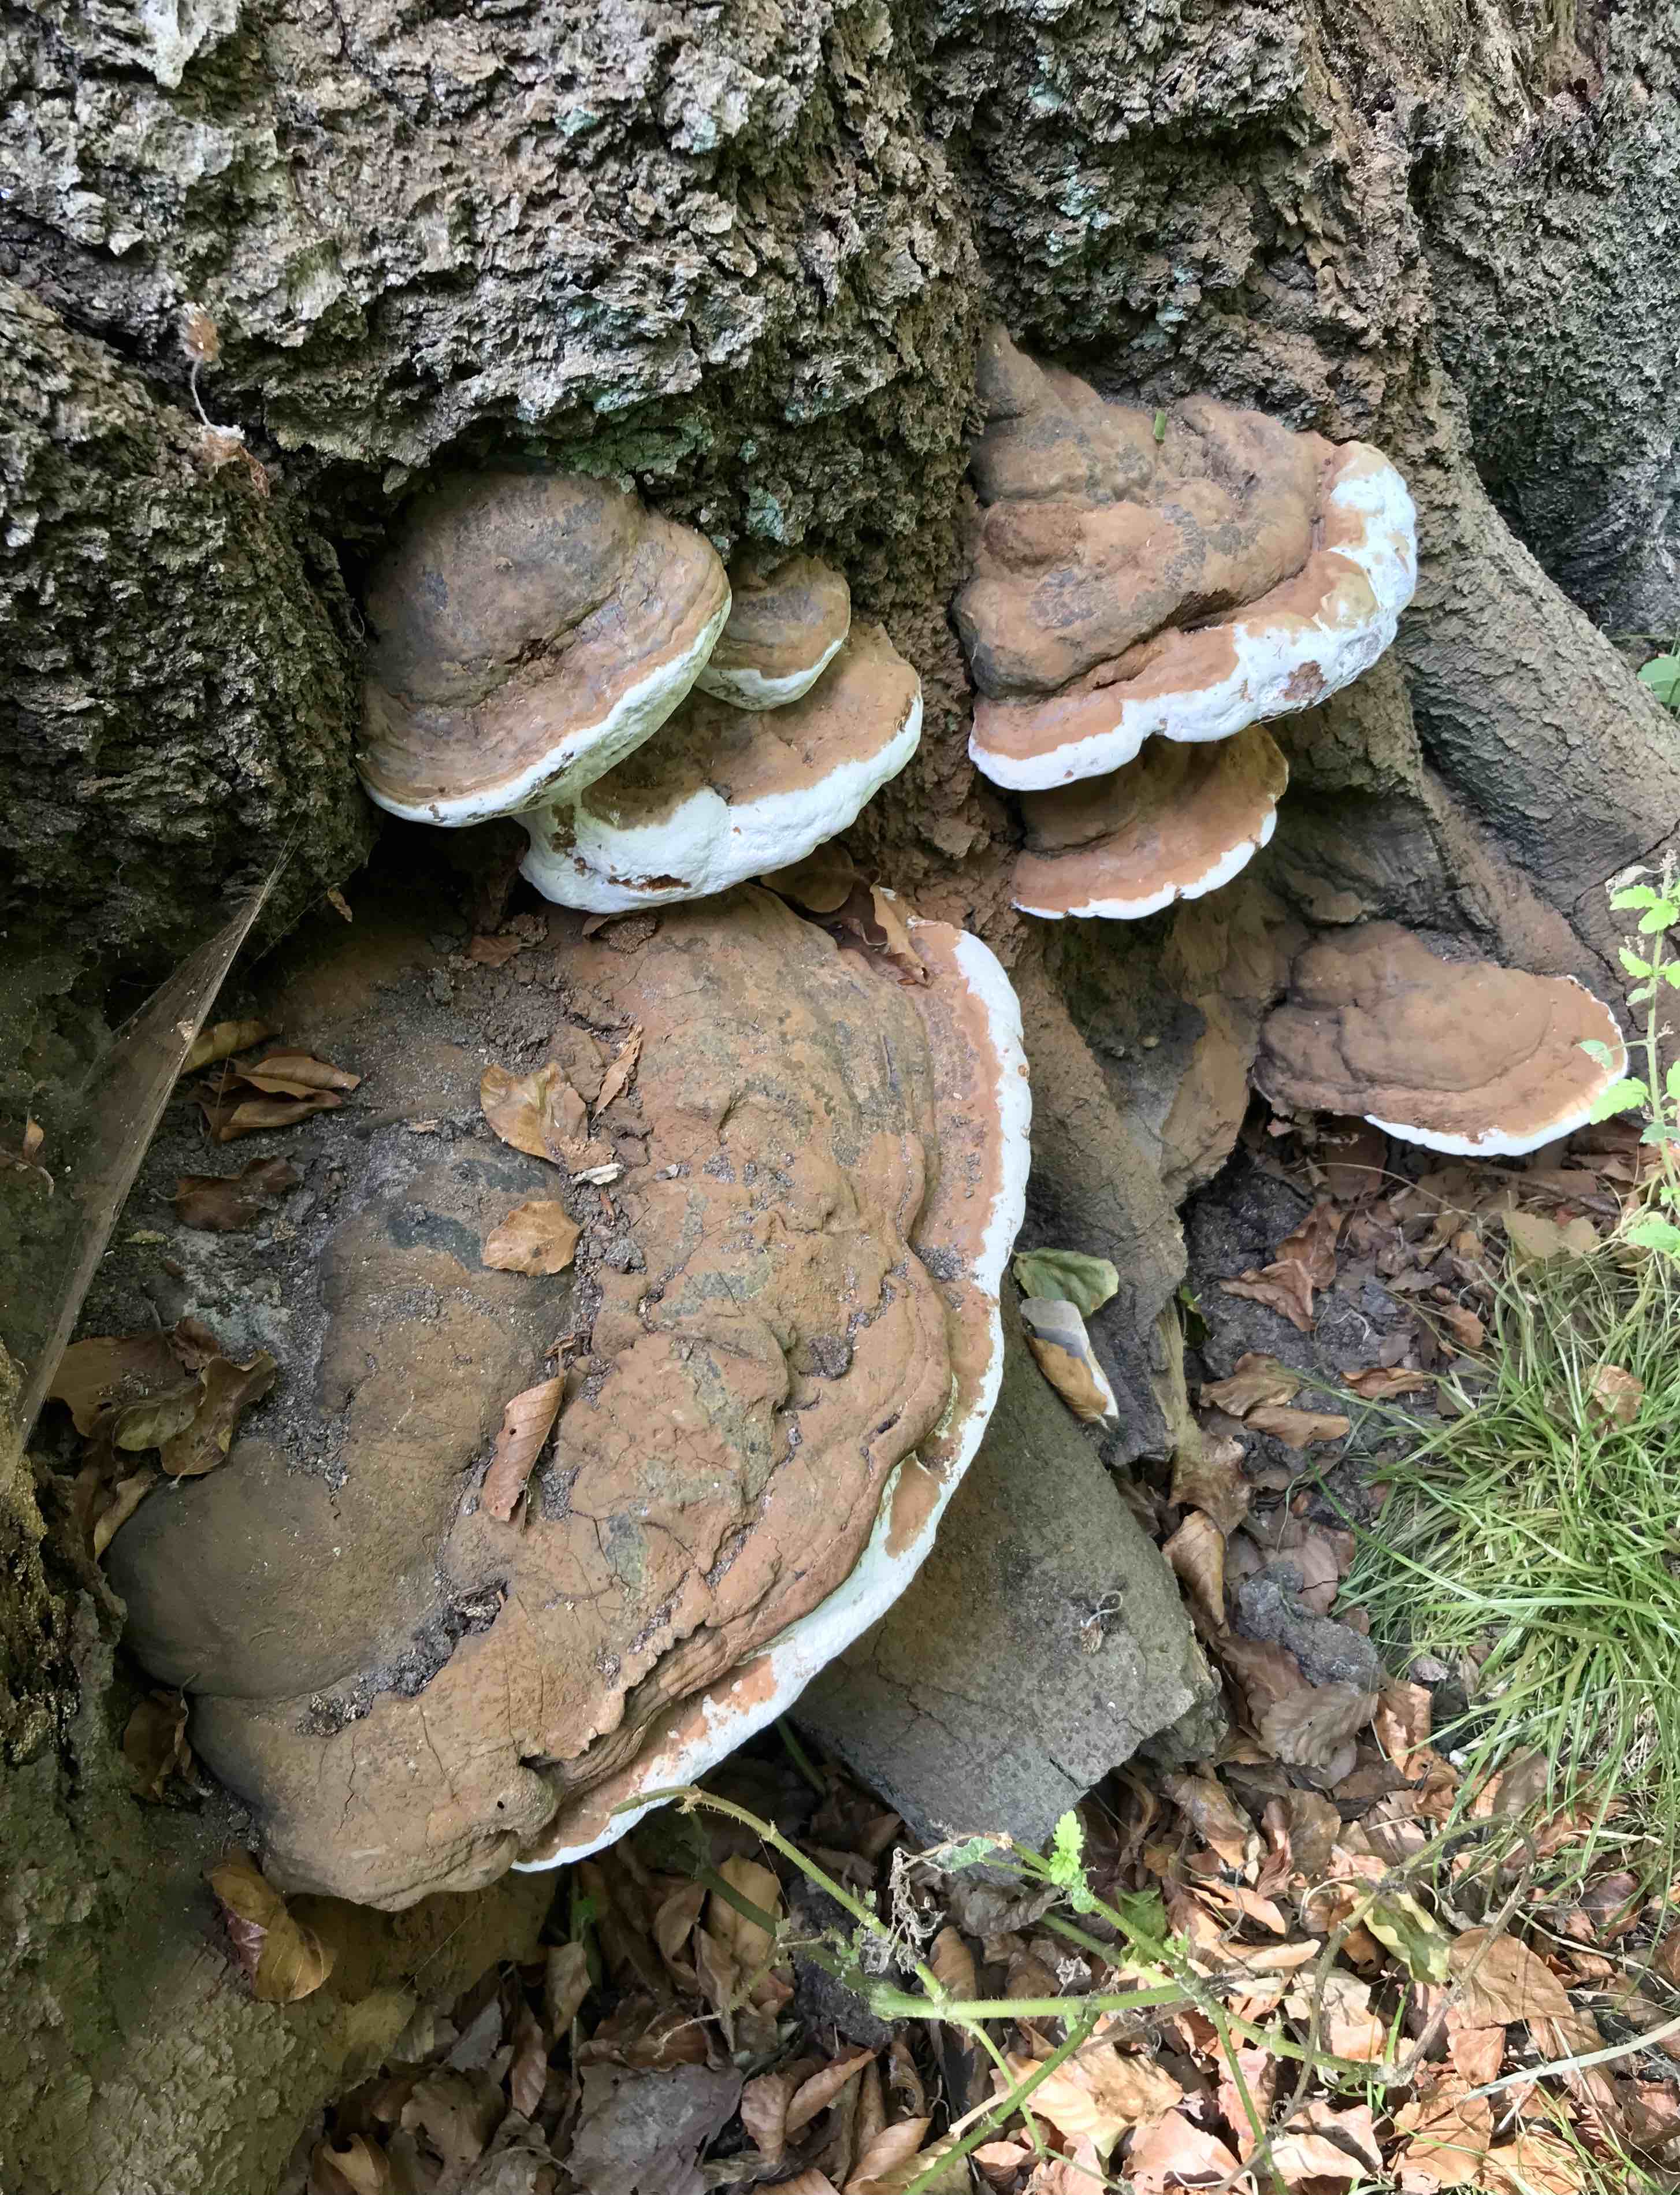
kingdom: Fungi
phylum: Basidiomycota
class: Agaricomycetes
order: Polyporales
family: Polyporaceae
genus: Ganoderma
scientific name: Ganoderma pfeifferi
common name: kobberrød lakporesvamp
